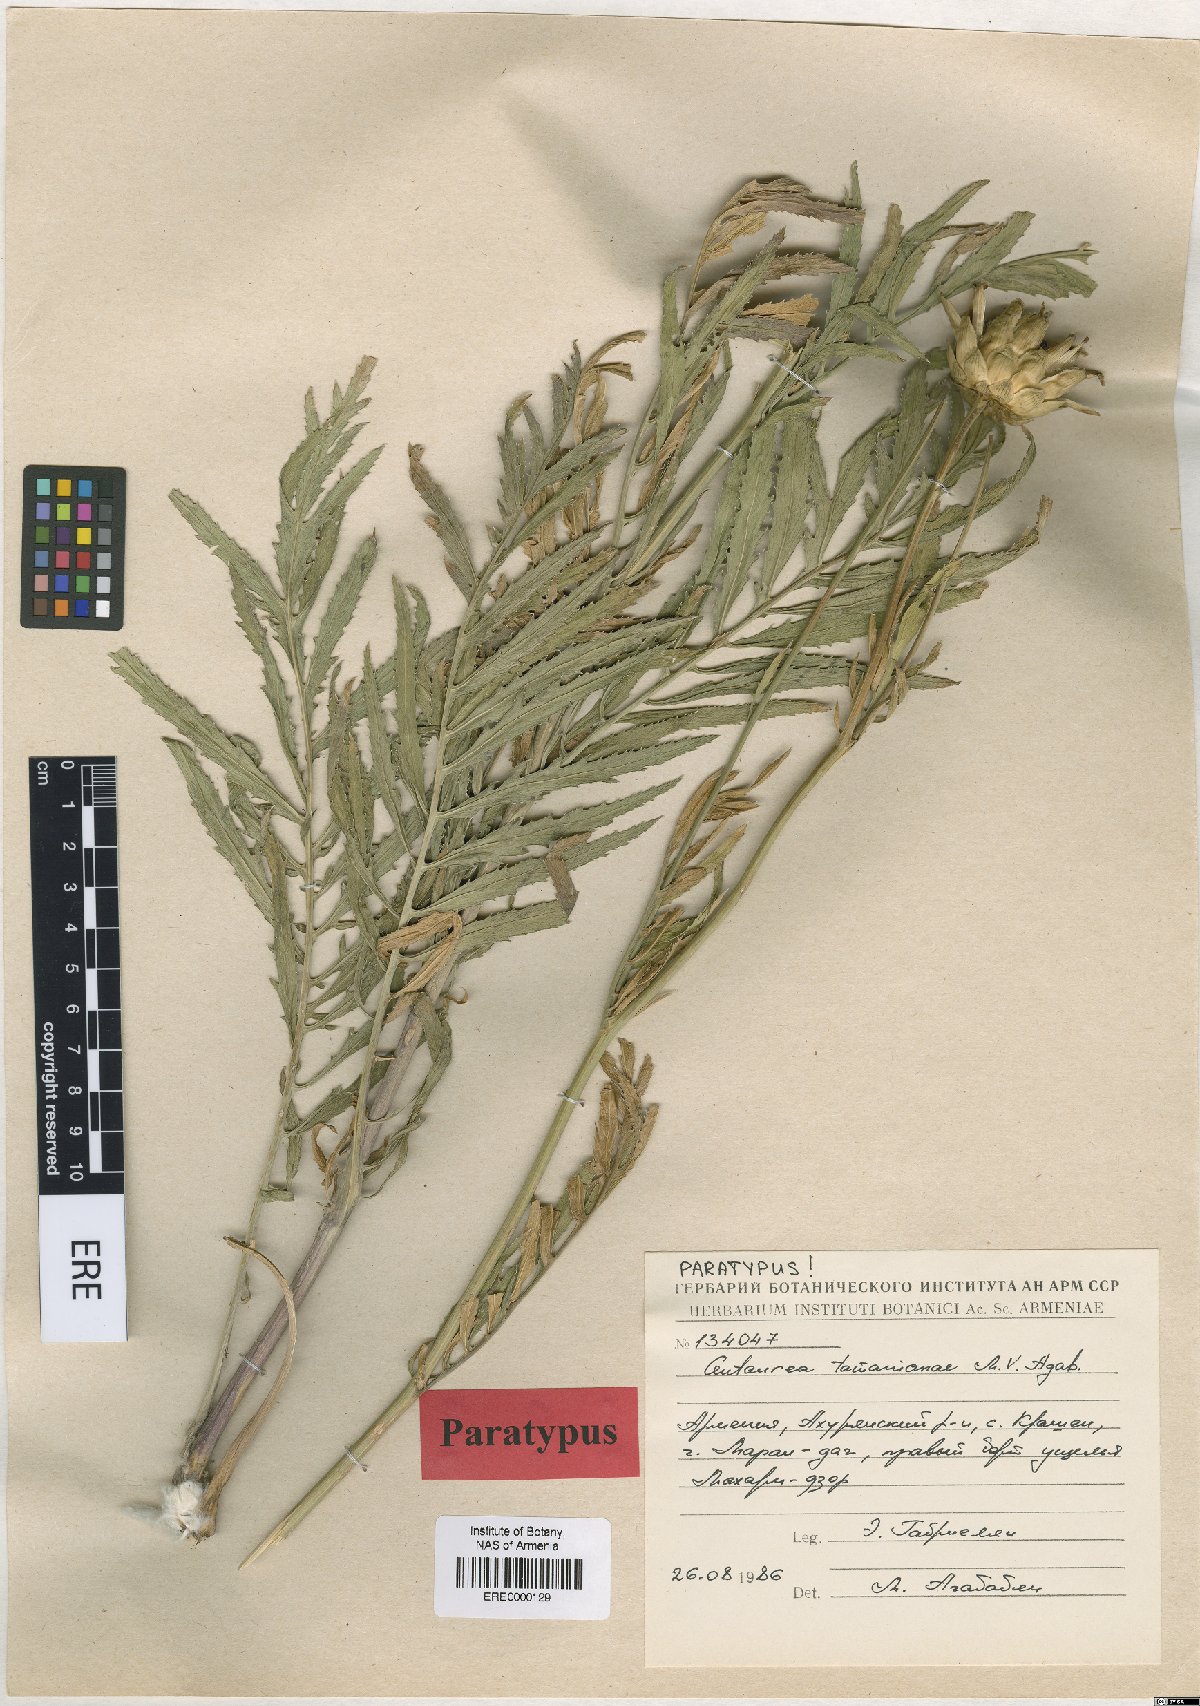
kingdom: Plantae
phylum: Tracheophyta
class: Magnoliopsida
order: Asterales
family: Asteraceae
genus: Rhaponticoides
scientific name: Rhaponticoides tamanianae
